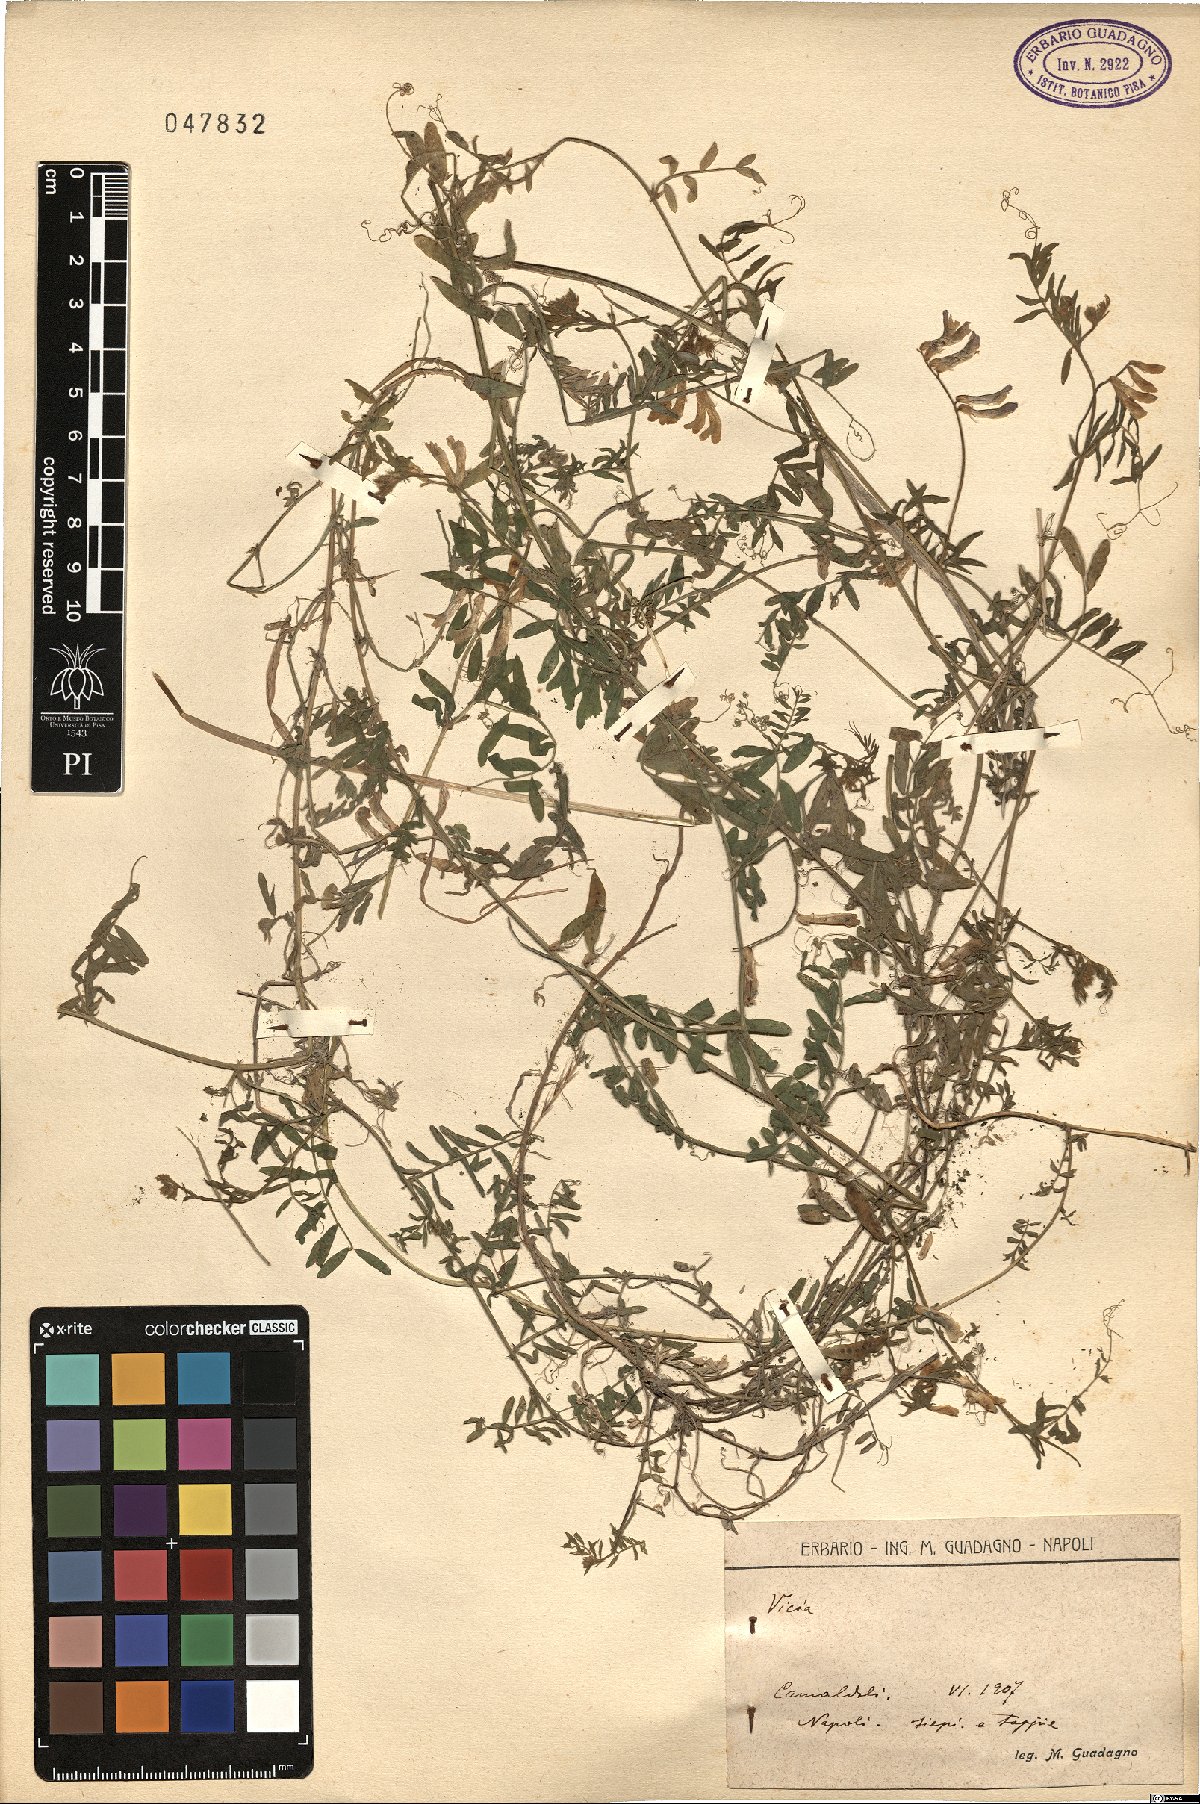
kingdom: Plantae
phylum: Tracheophyta
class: Magnoliopsida
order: Fabales
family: Fabaceae
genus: Vicia
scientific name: Vicia
